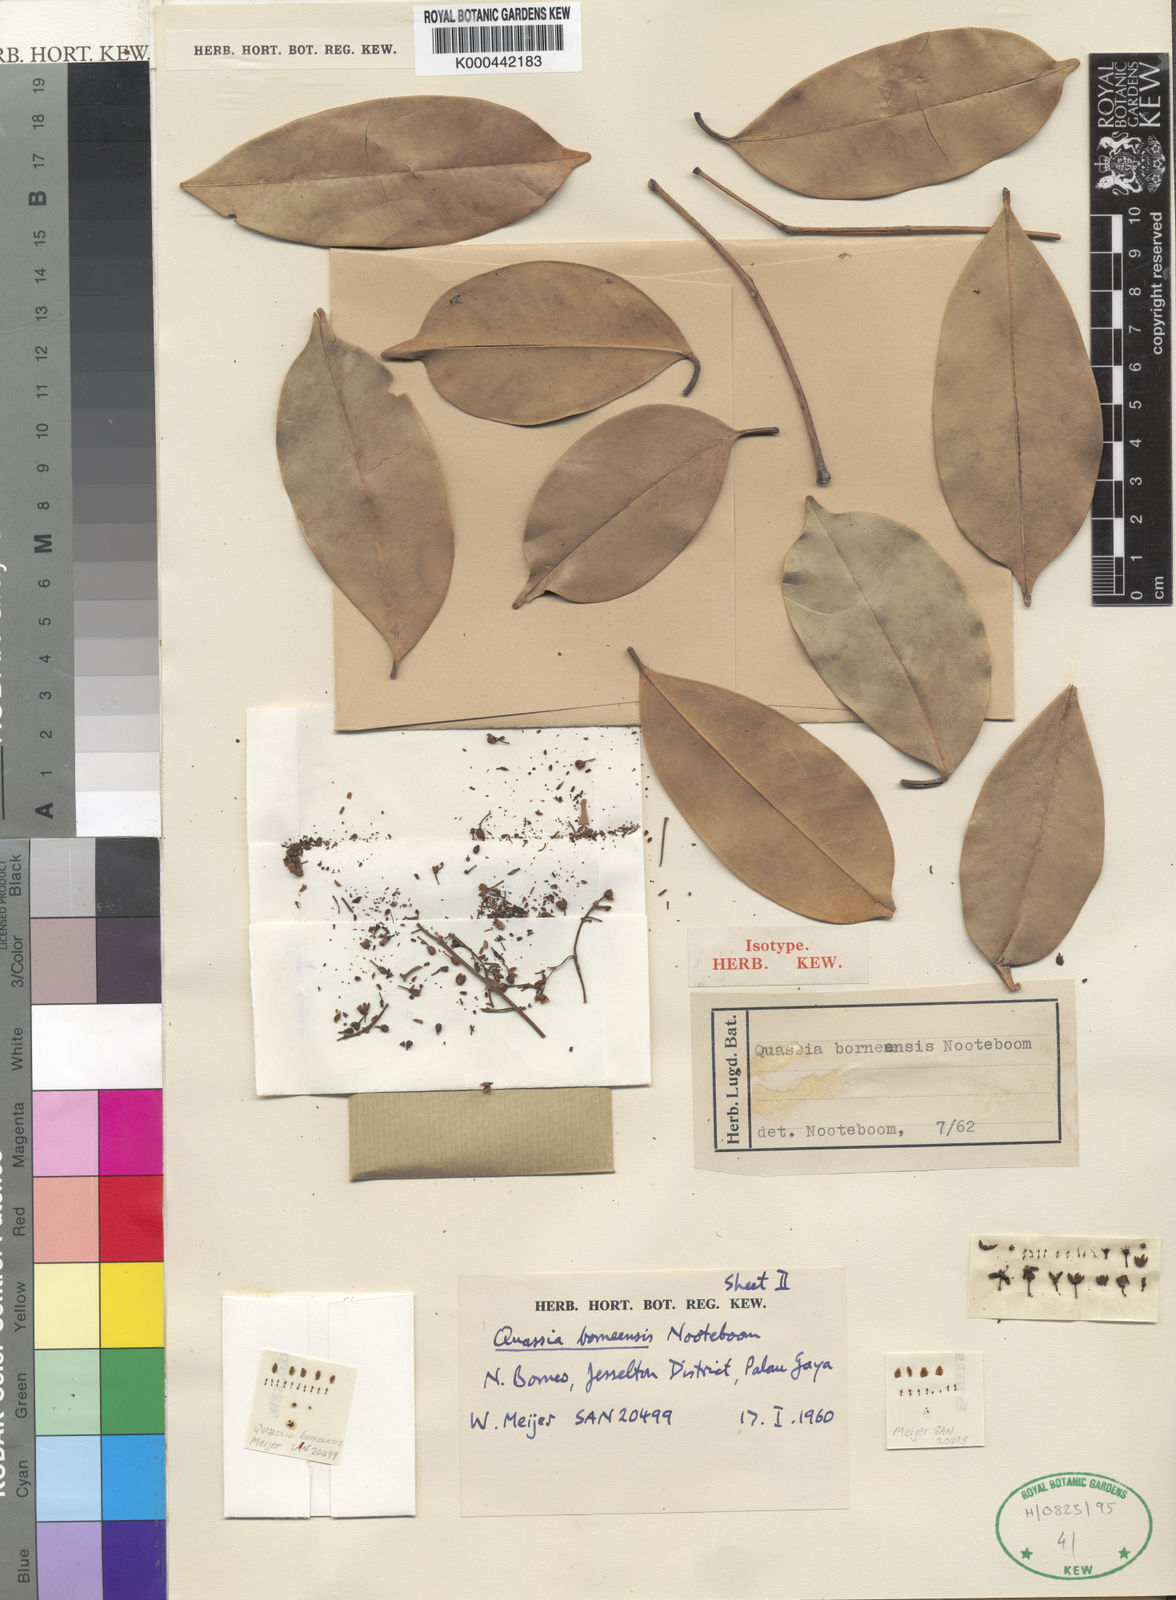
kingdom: Plantae
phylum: Tracheophyta
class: Magnoliopsida
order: Sapindales
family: Simaroubaceae
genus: Simaba
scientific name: Simaba borneensis
